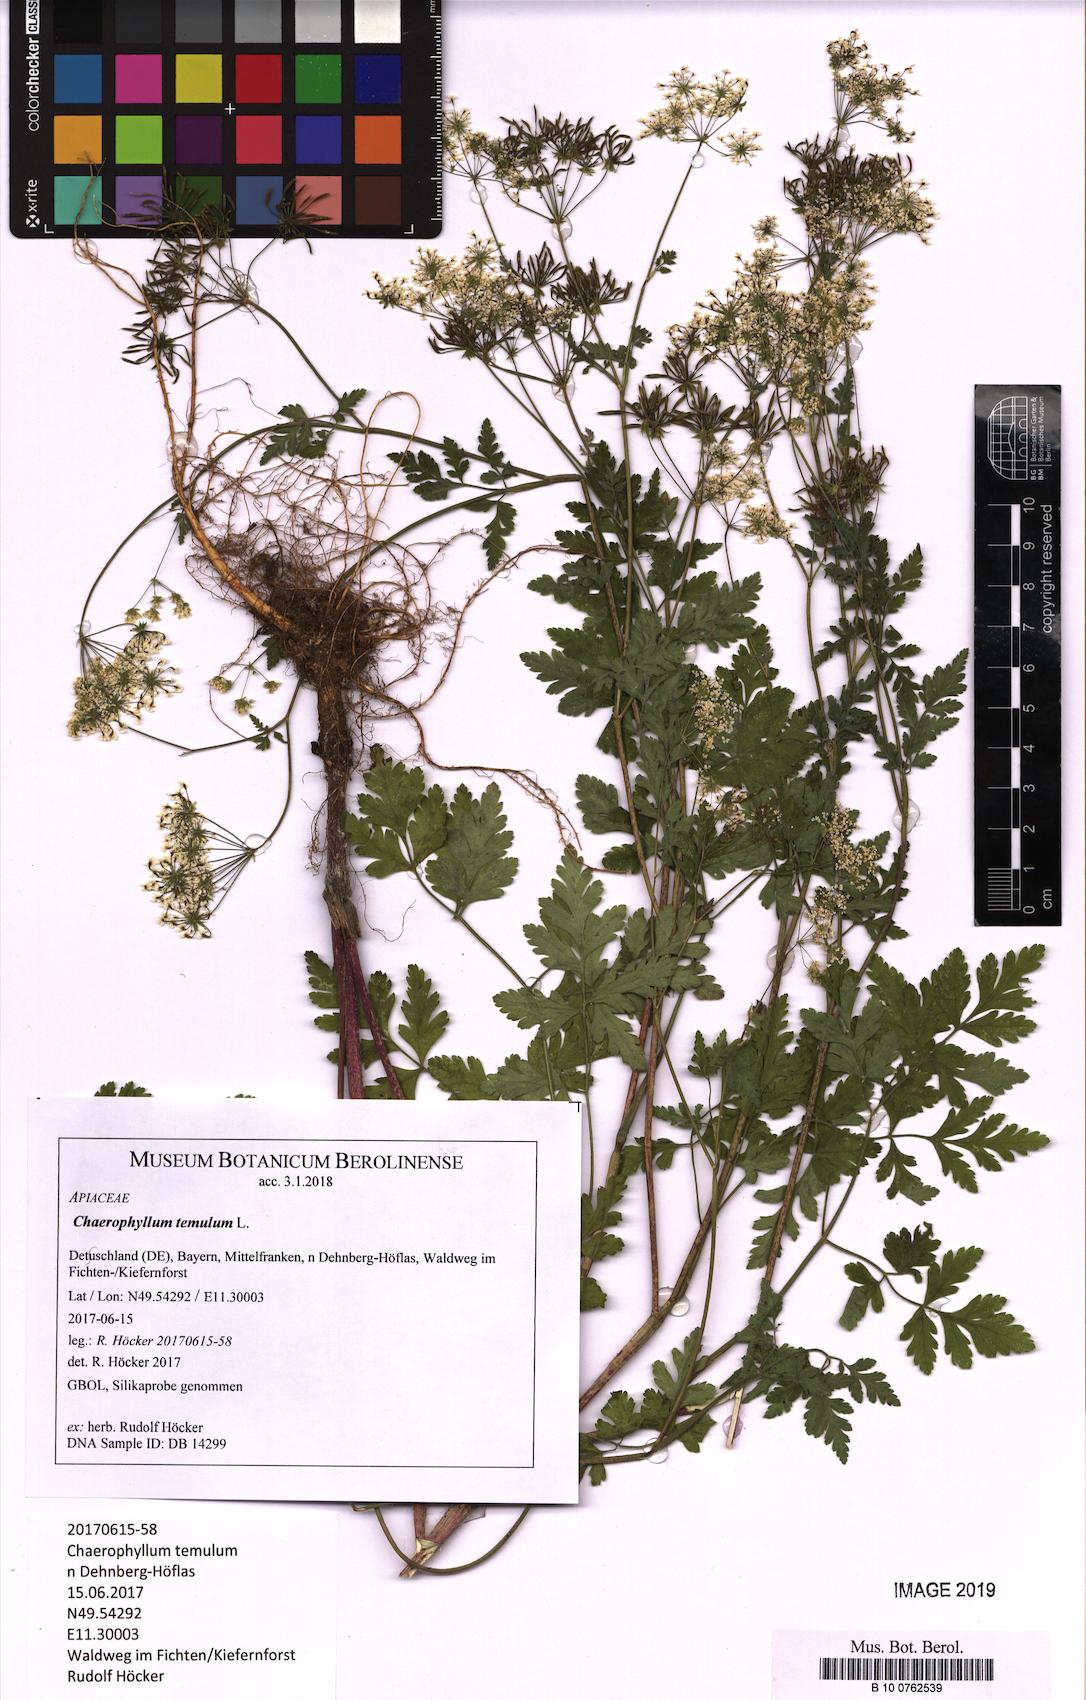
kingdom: Plantae
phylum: Tracheophyta
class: Magnoliopsida
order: Apiales
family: Apiaceae
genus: Chaerophyllum
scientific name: Chaerophyllum temulum
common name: Rough chervil
